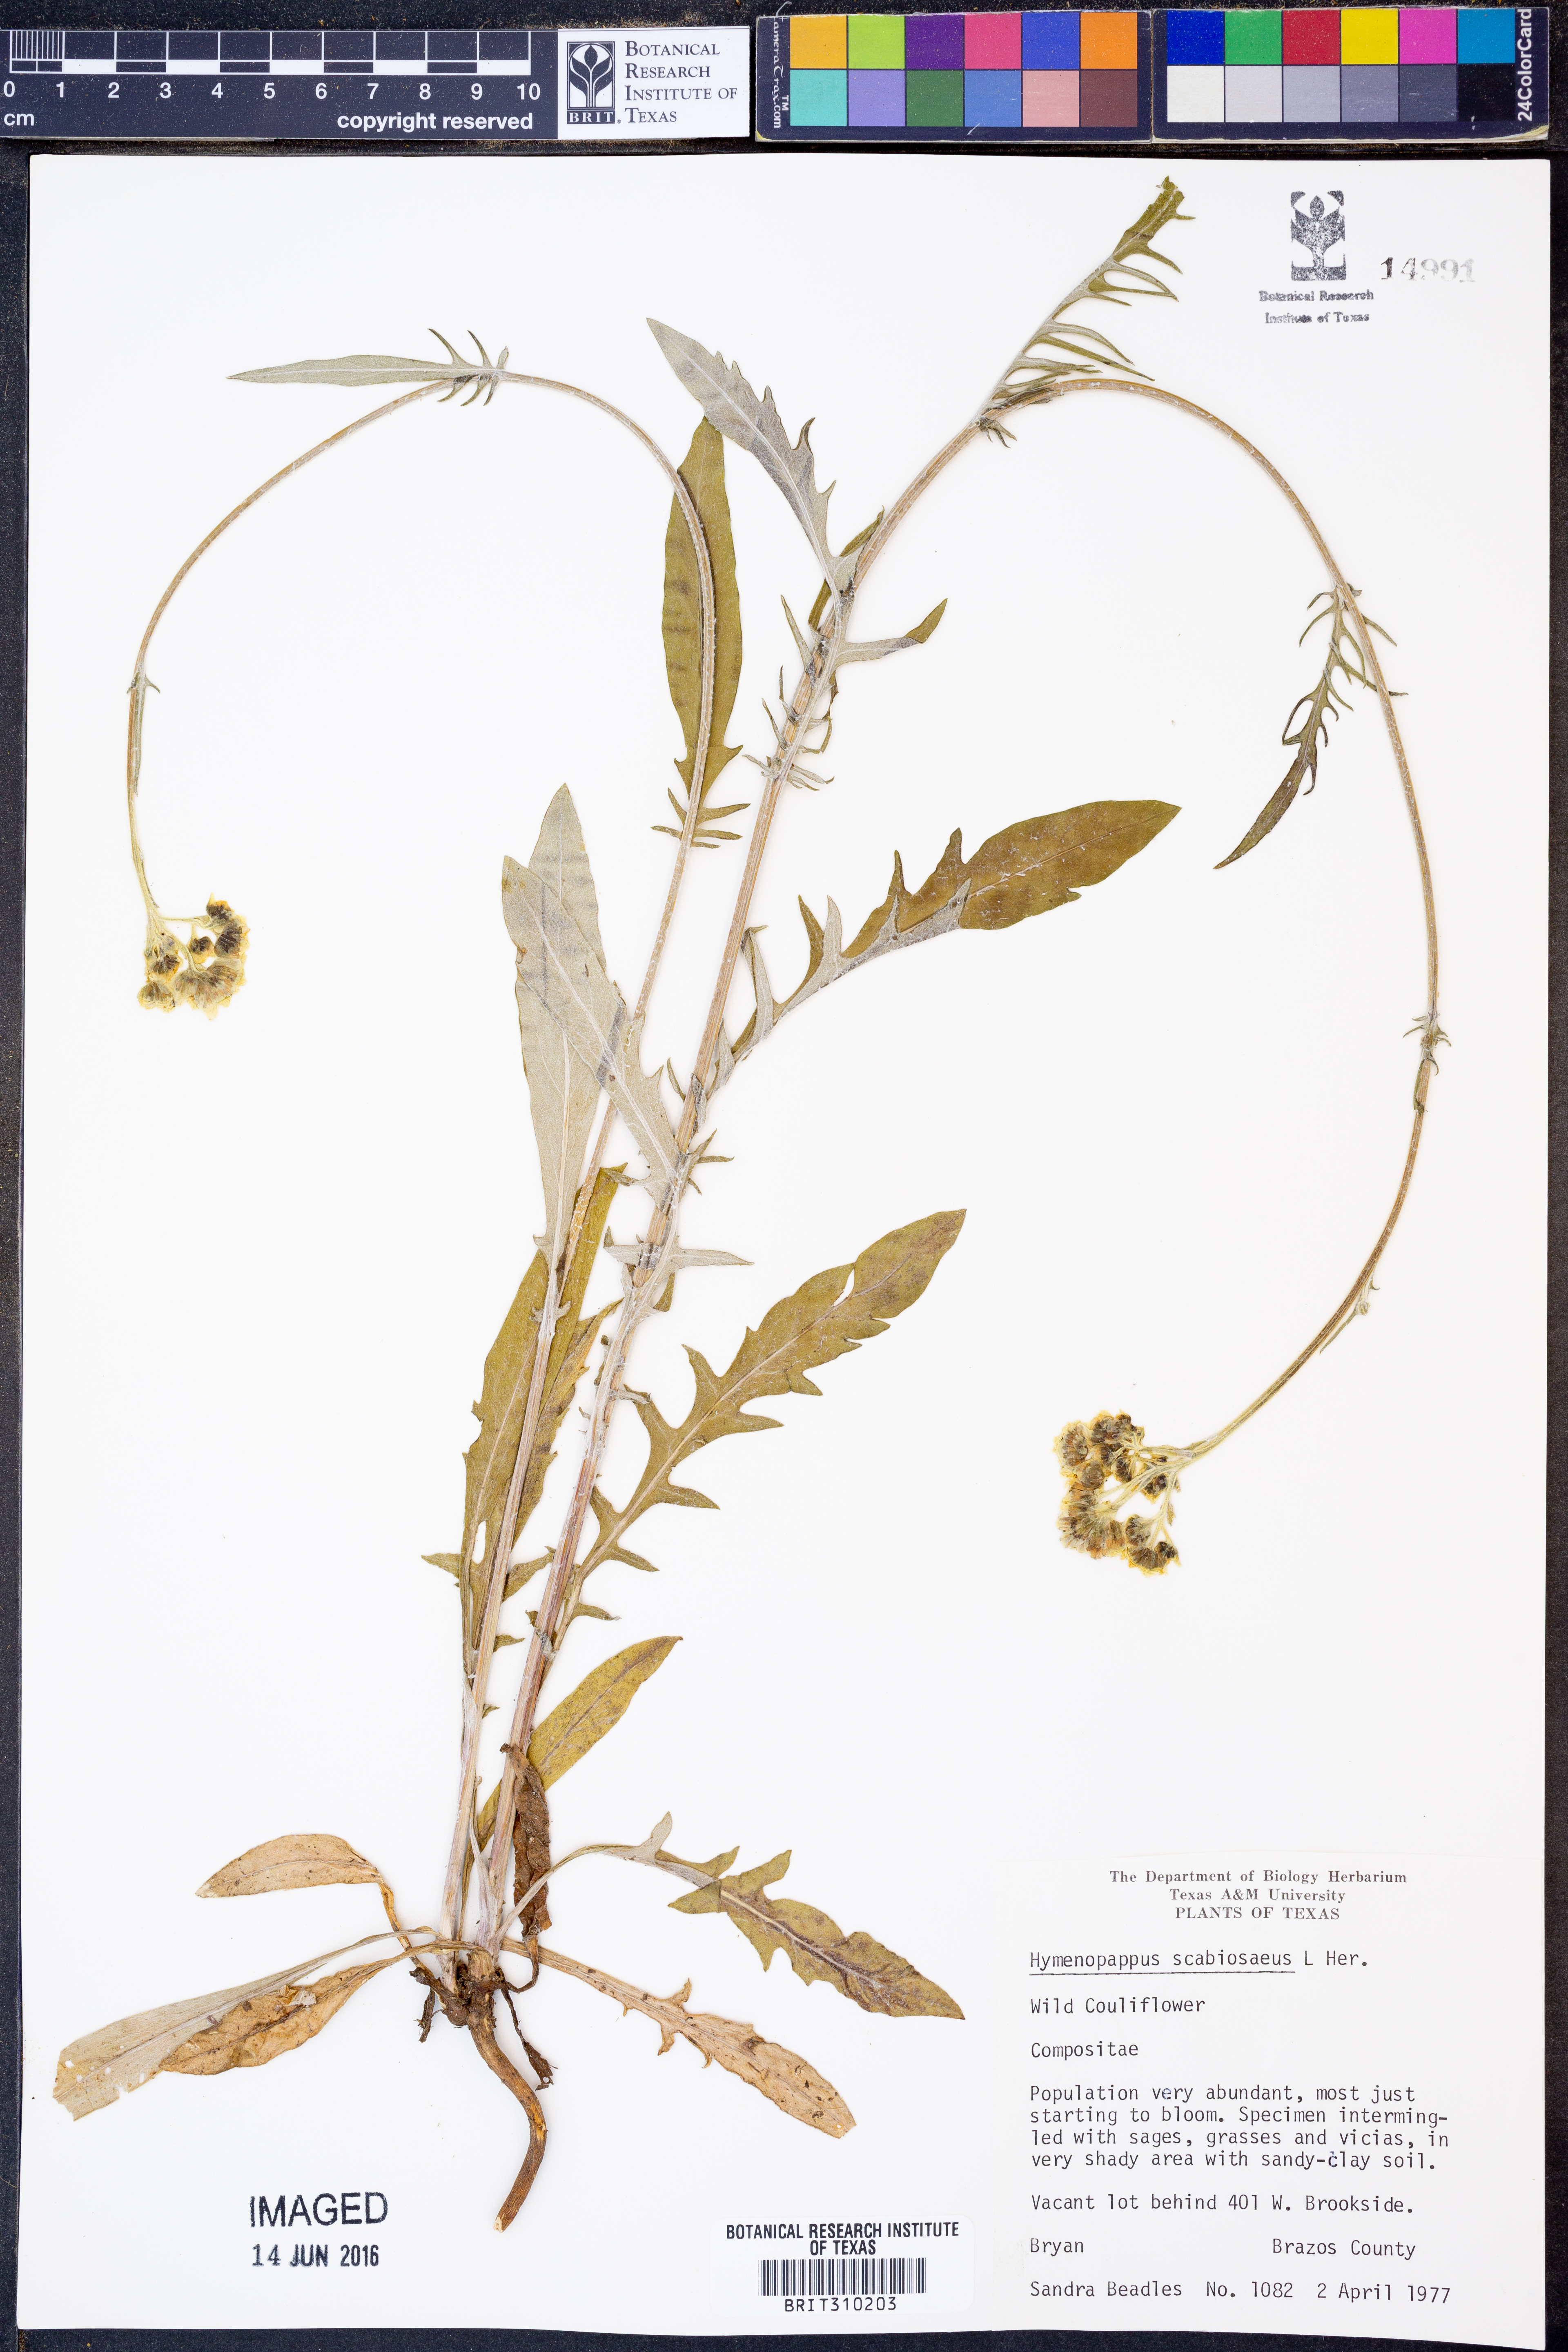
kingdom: Plantae
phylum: Tracheophyta
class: Magnoliopsida
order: Asterales
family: Asteraceae
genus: Hymenopappus
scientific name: Hymenopappus scabiosaeus
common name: Carolina woollywhite
